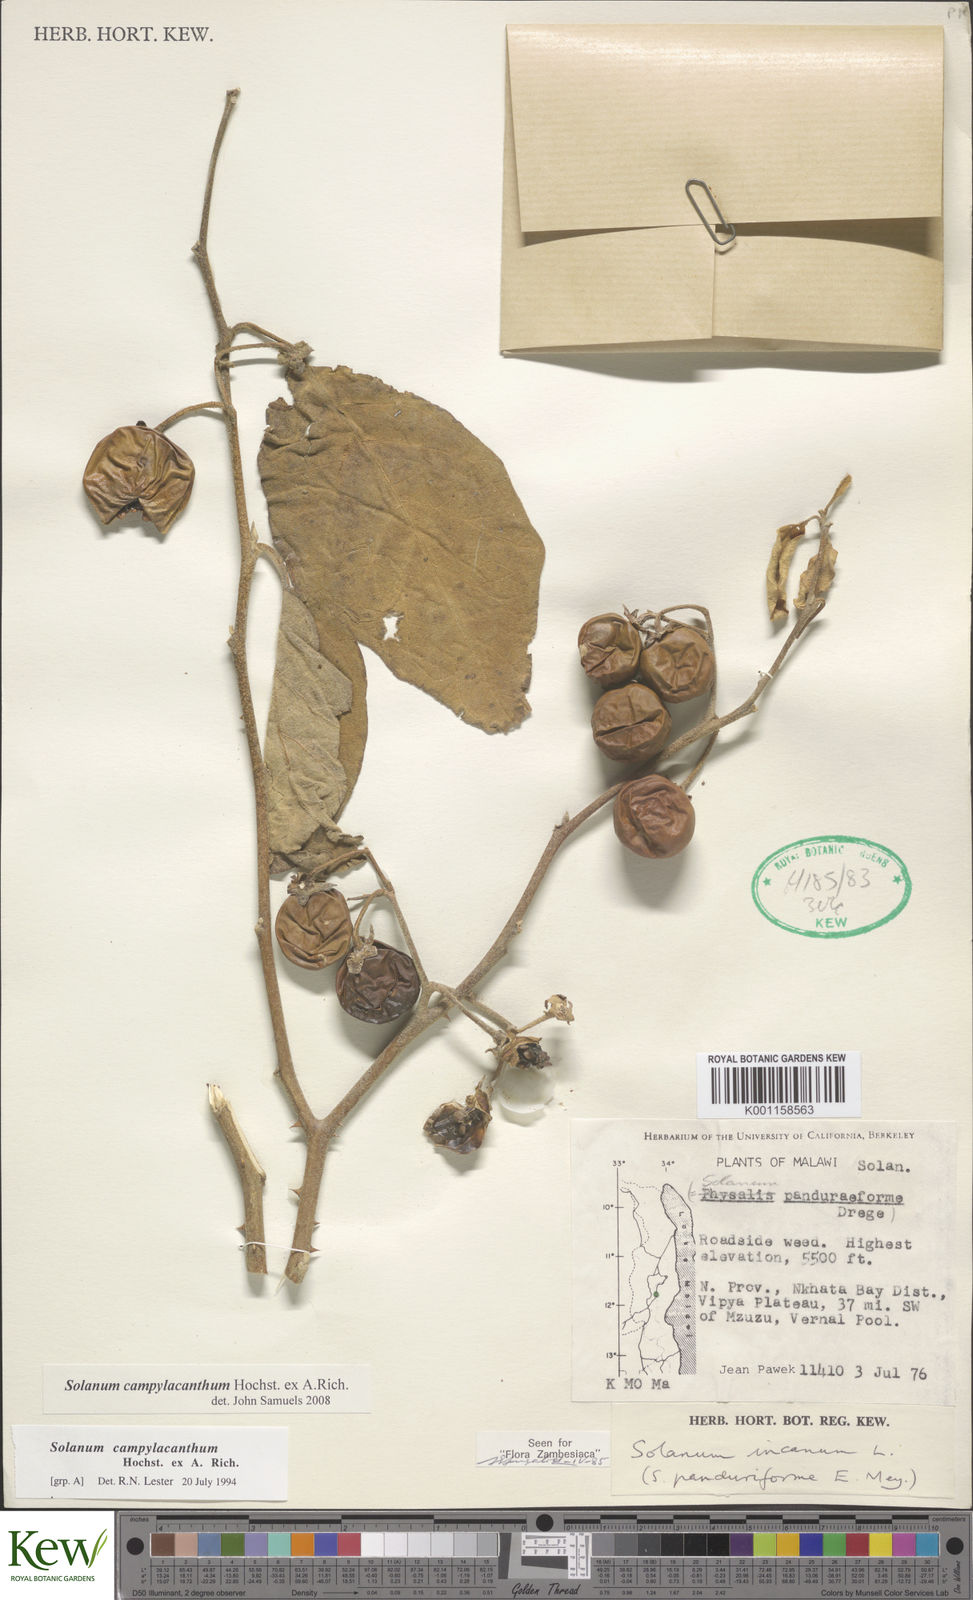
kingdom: Plantae
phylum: Tracheophyta
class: Magnoliopsida
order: Solanales
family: Solanaceae
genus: Solanum
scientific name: Solanum campylacanthum
